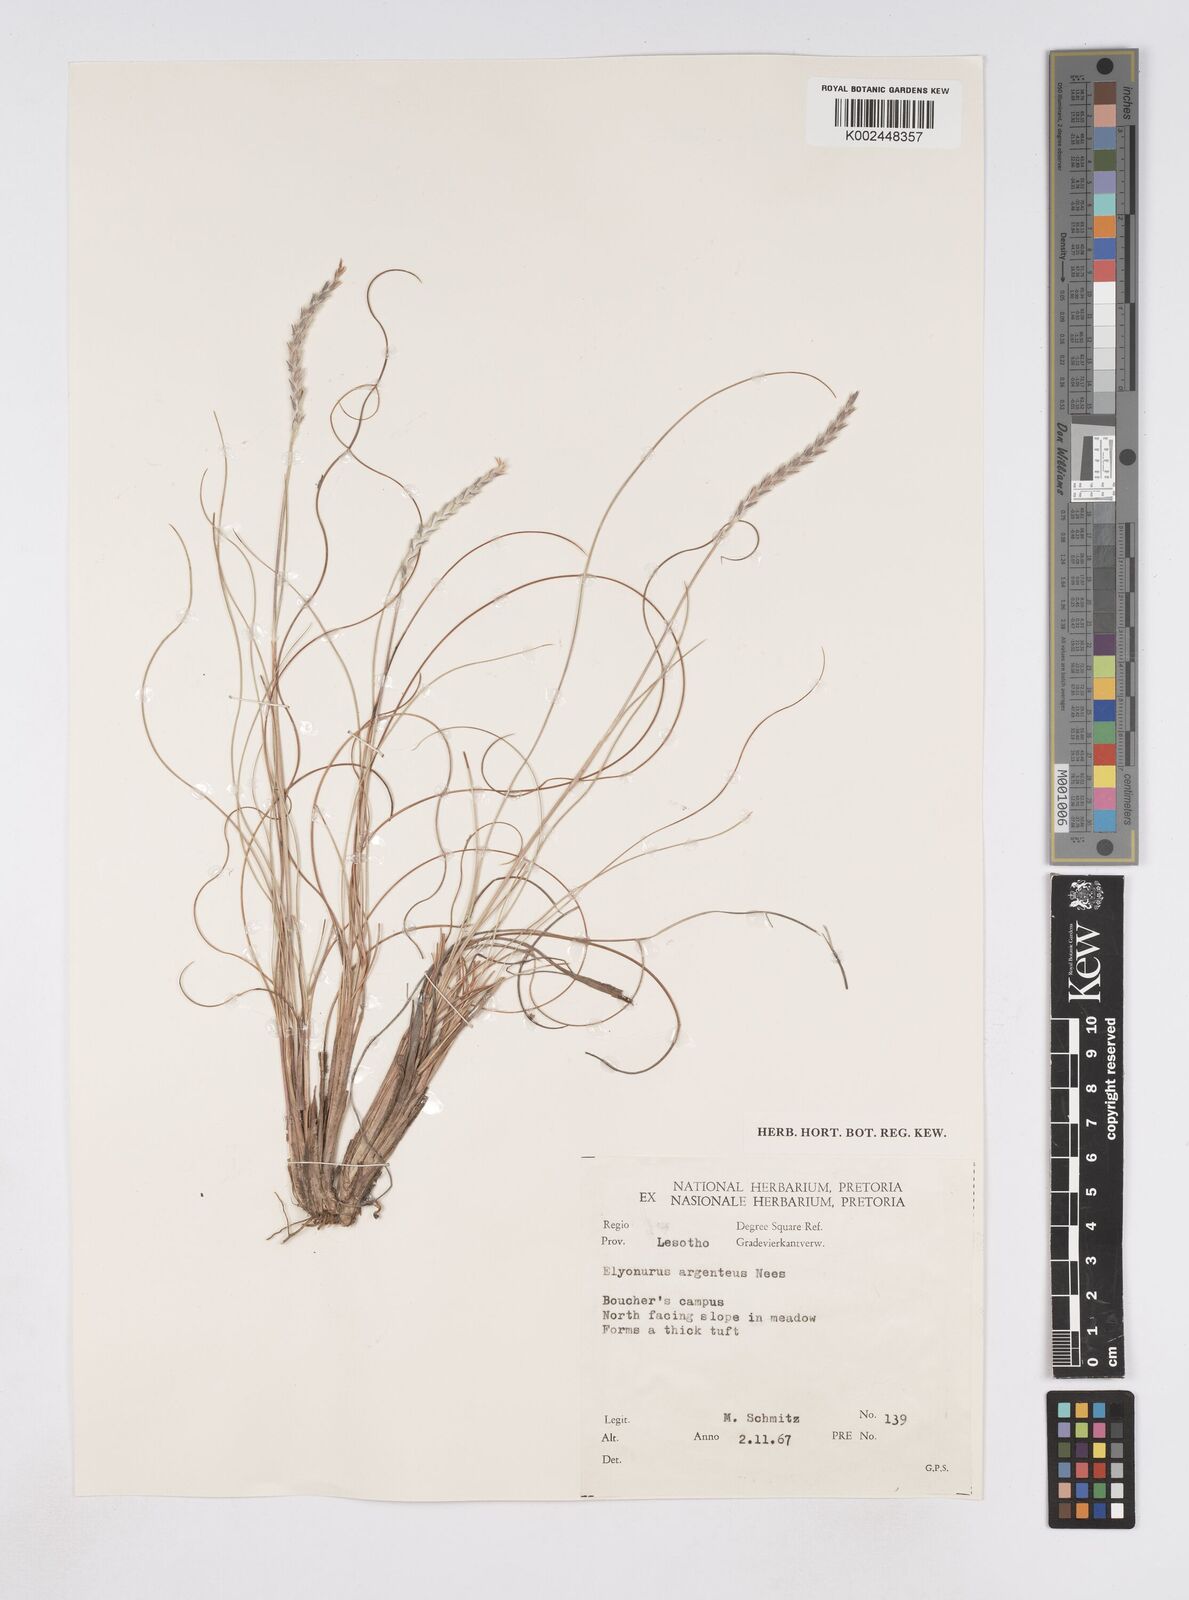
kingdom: Plantae
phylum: Tracheophyta
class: Liliopsida
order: Poales
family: Poaceae
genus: Elionurus
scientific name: Elionurus muticus
